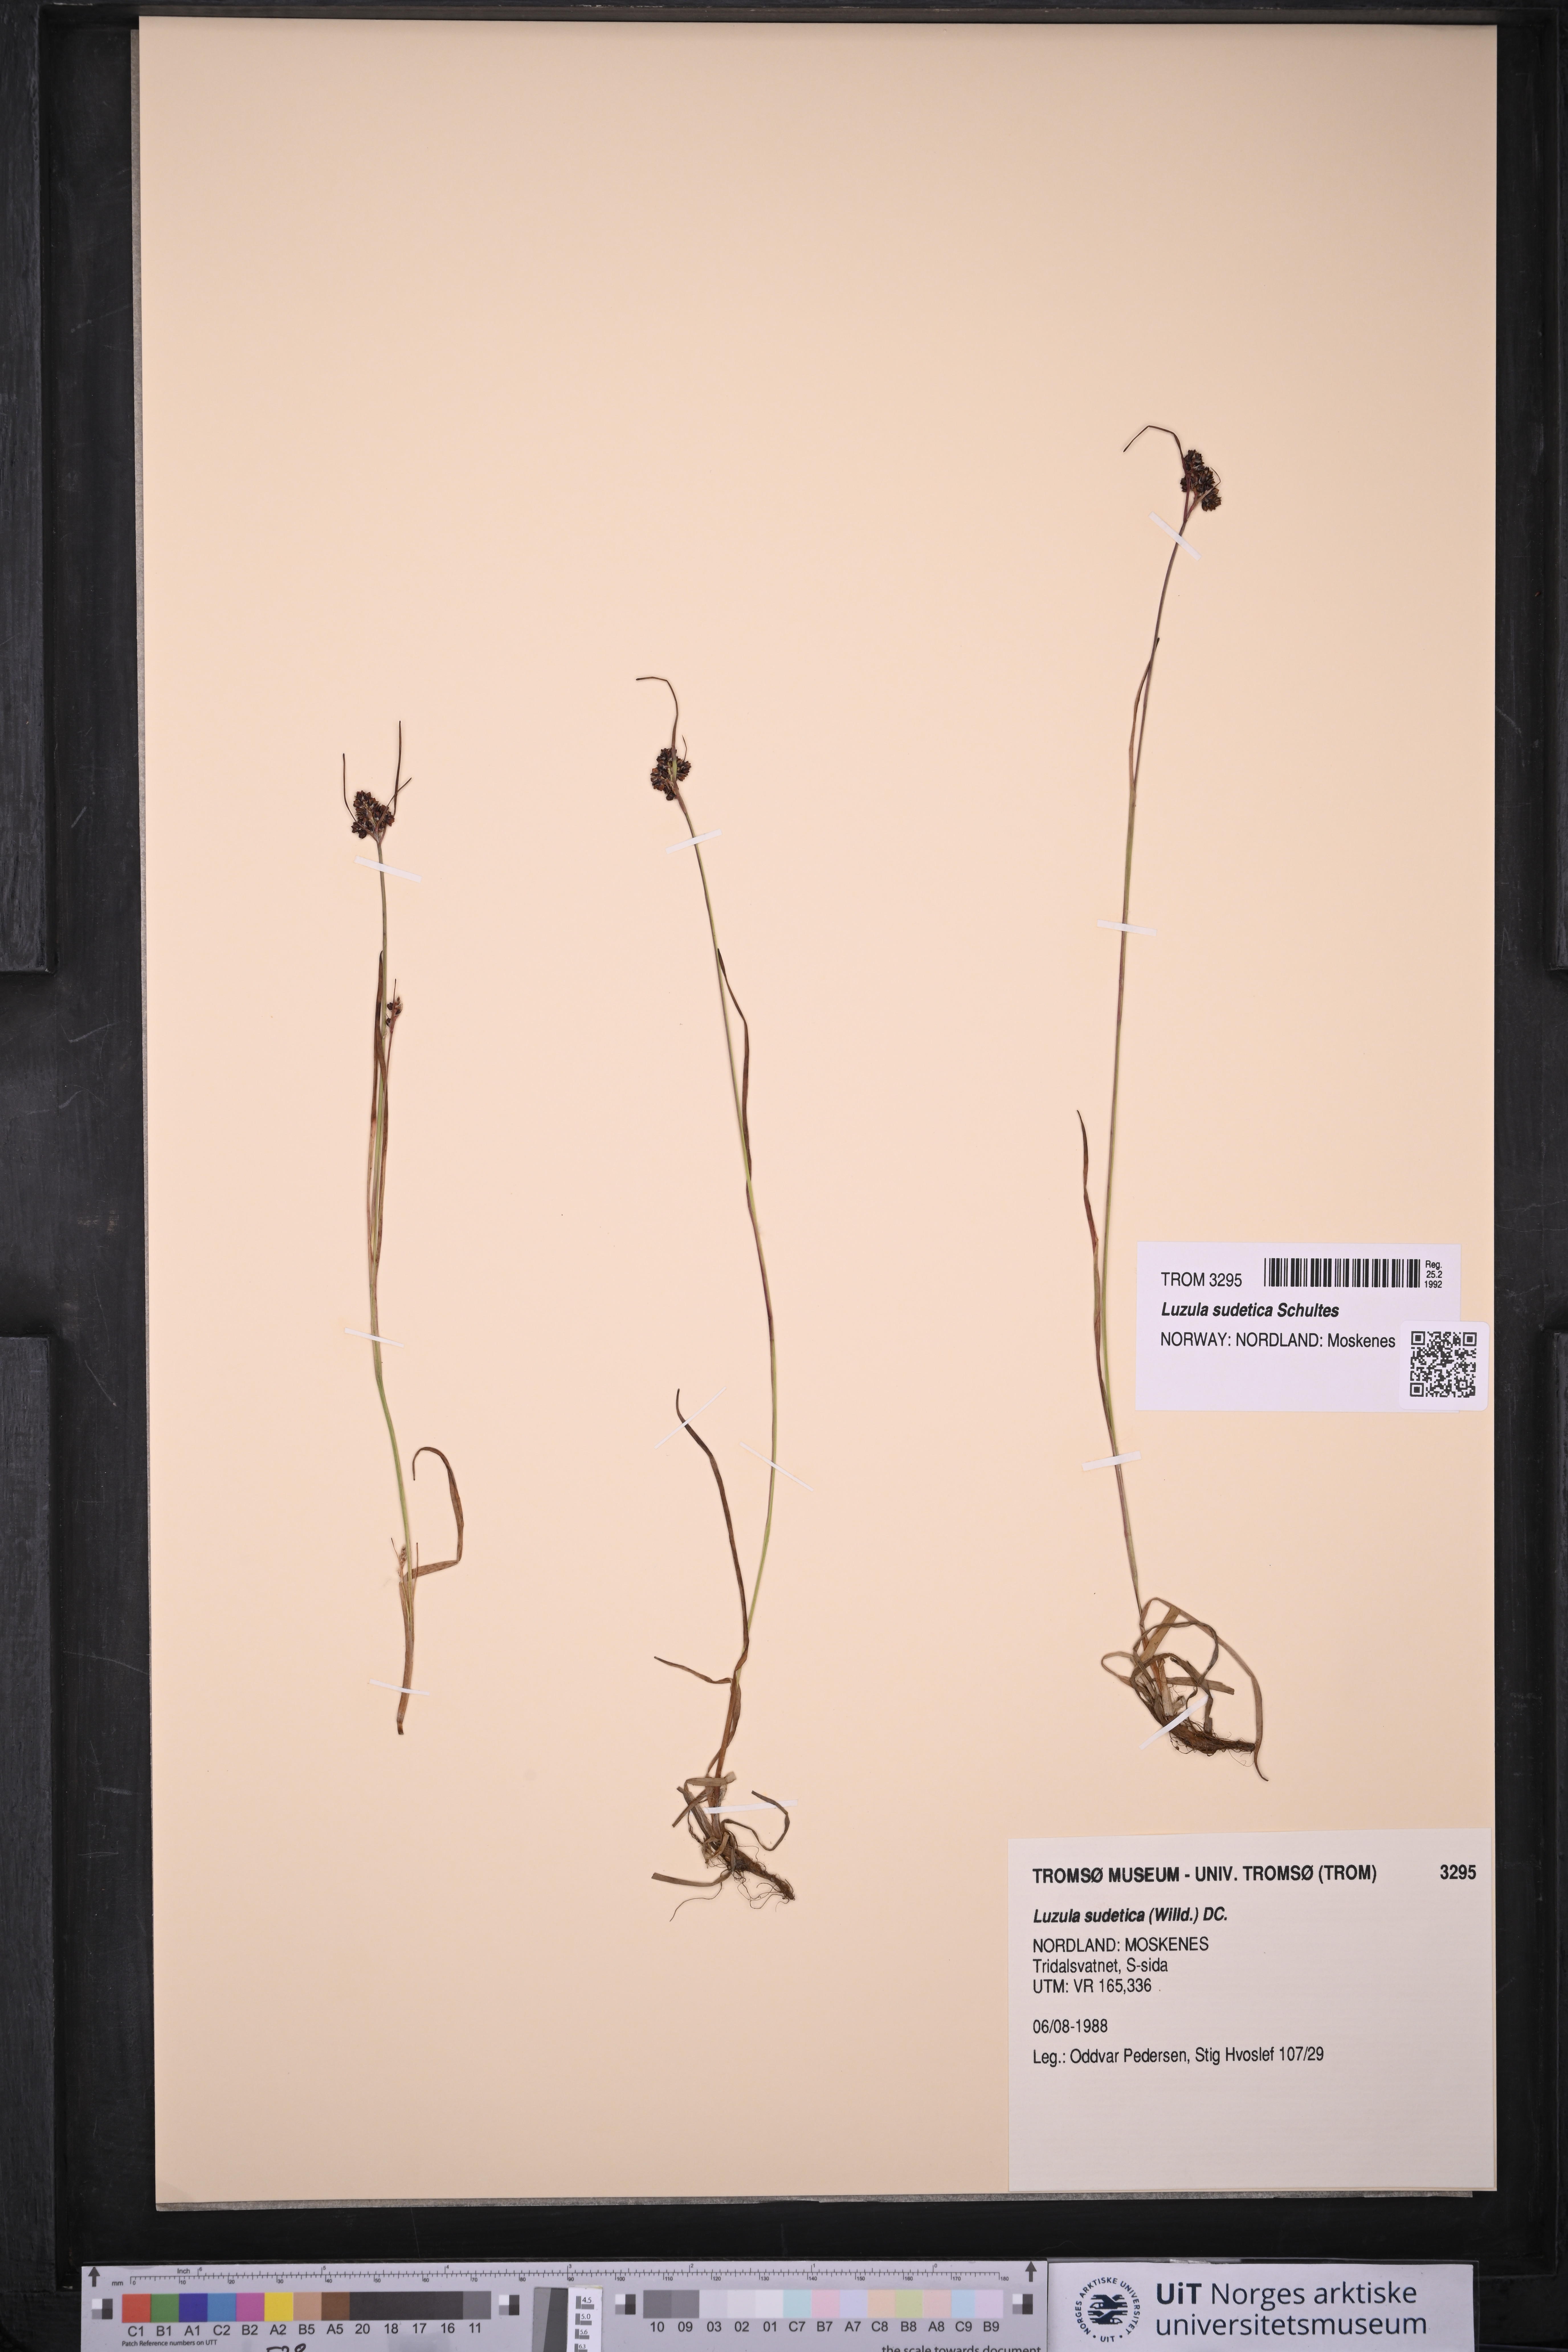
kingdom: Plantae
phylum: Tracheophyta
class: Liliopsida
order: Poales
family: Juncaceae
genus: Luzula
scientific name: Luzula sudetica
